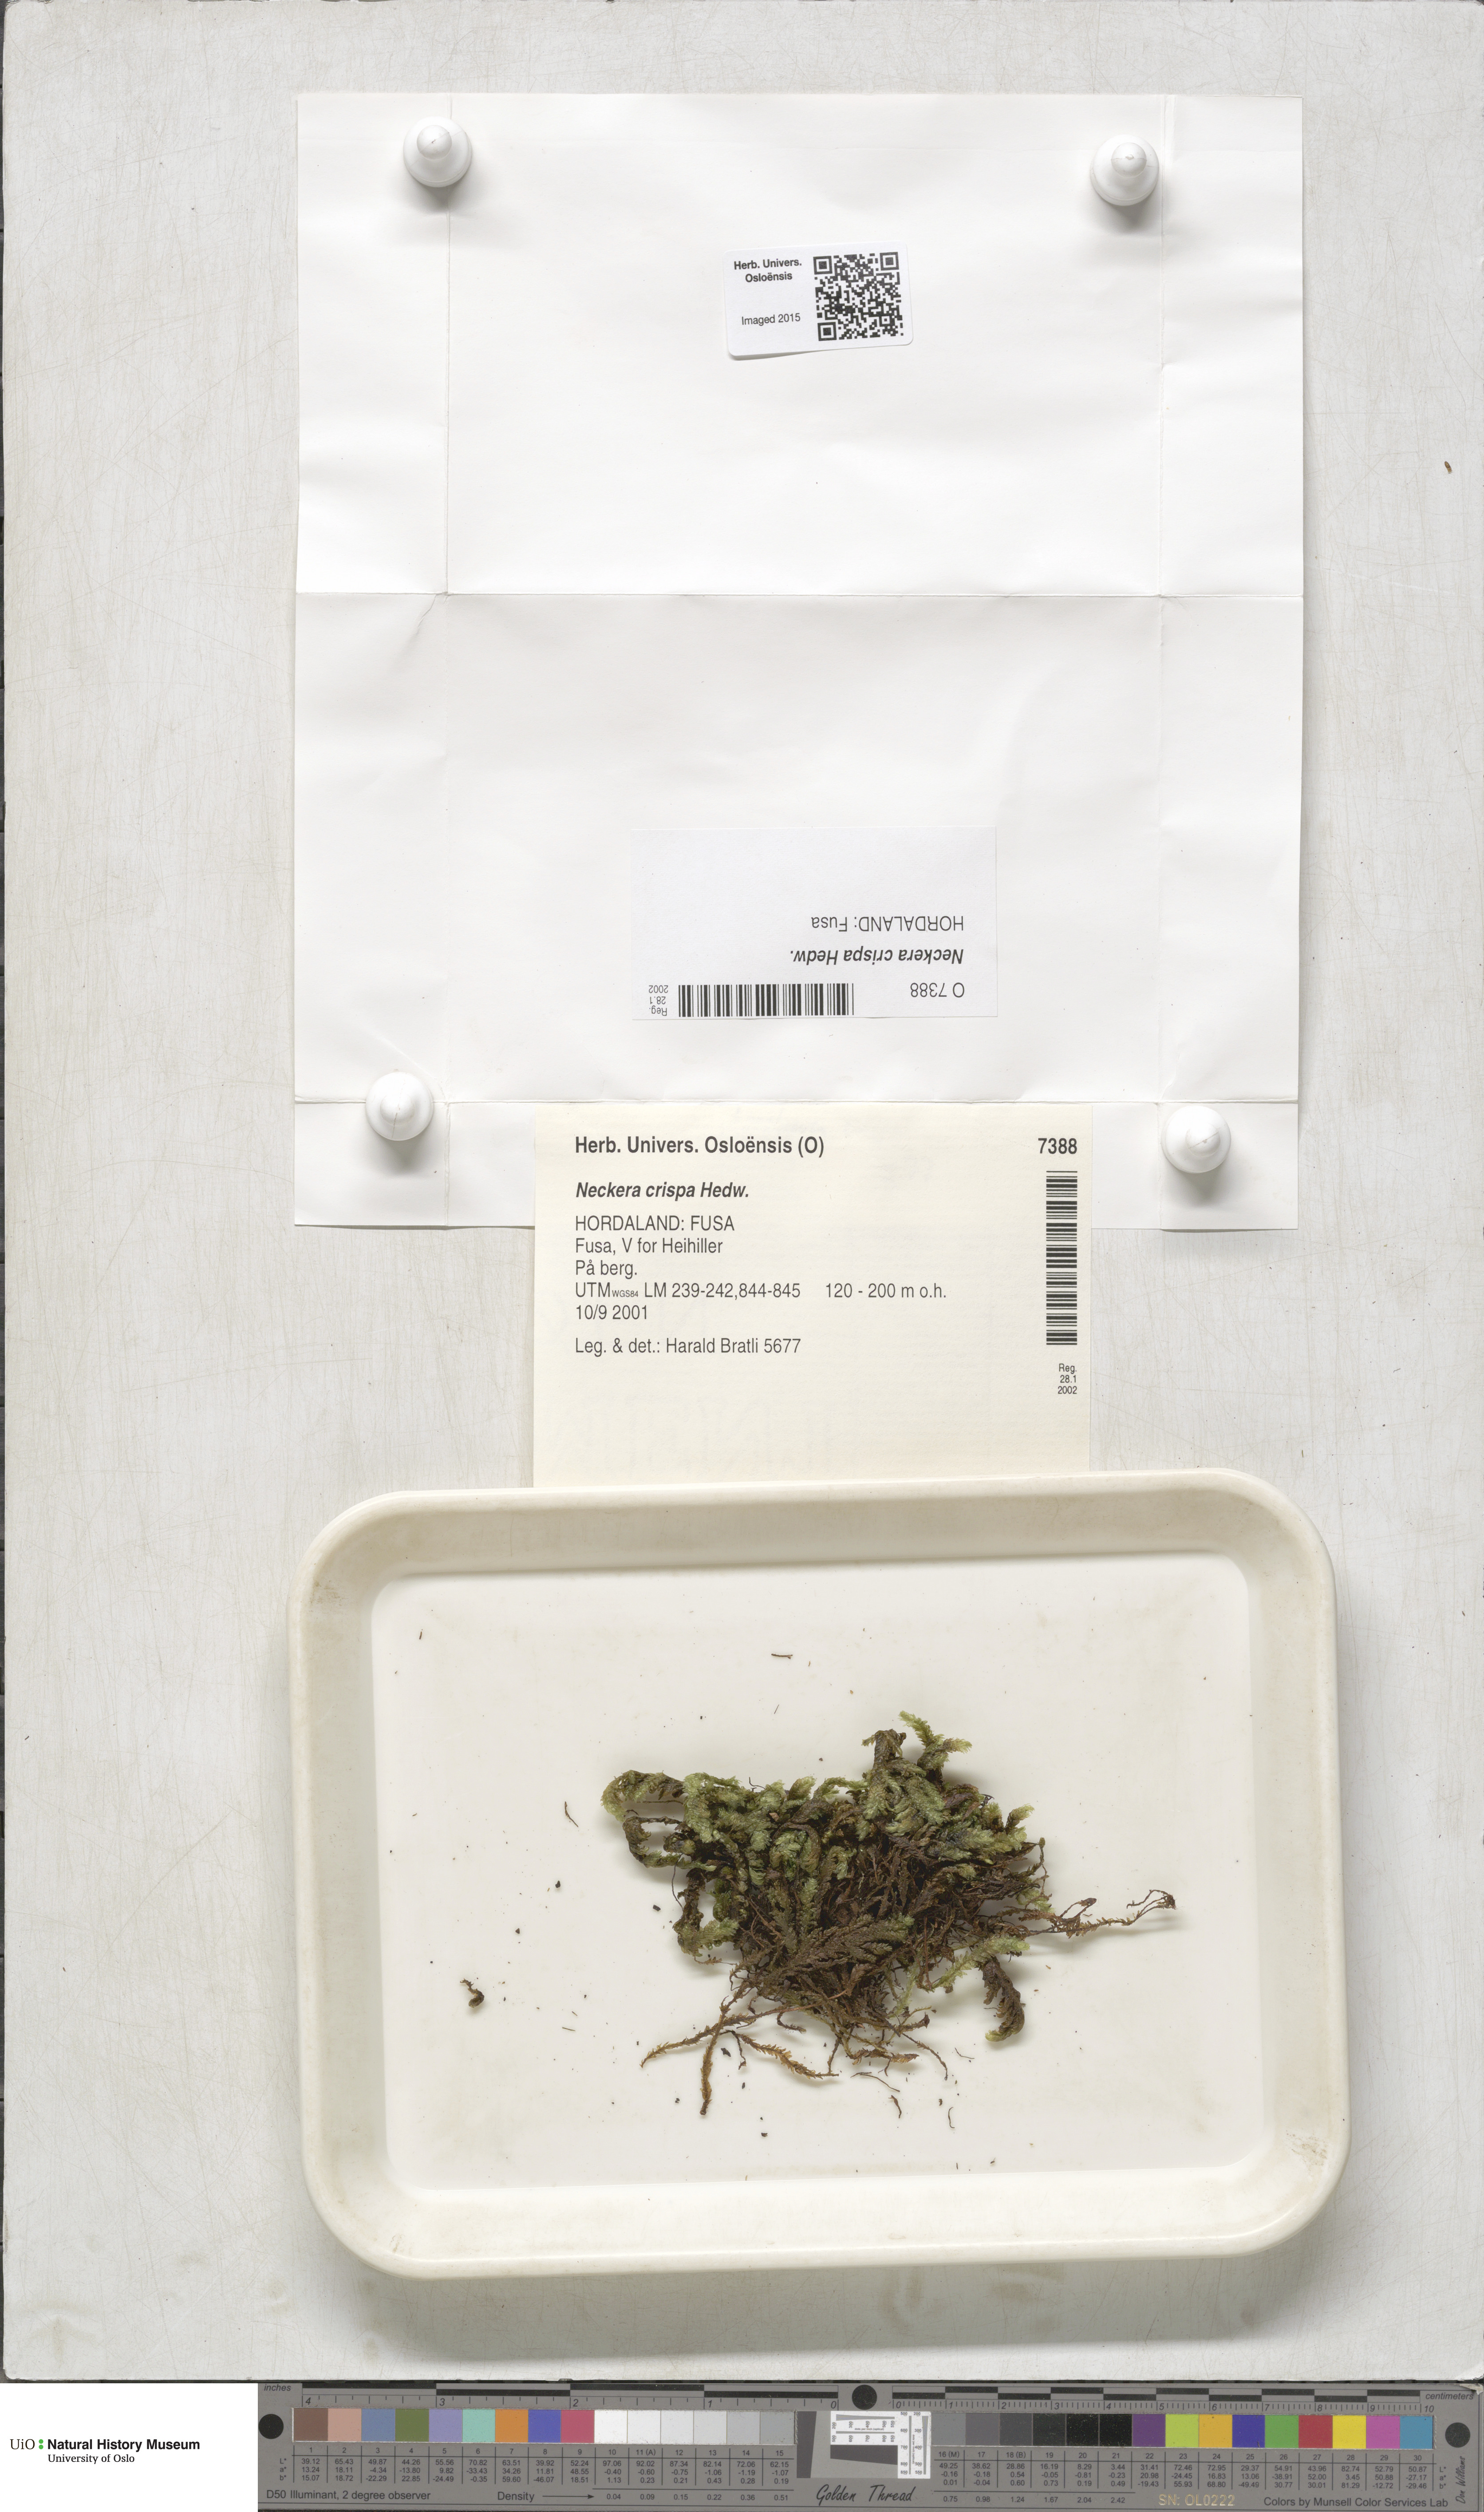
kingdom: Plantae
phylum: Bryophyta
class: Bryopsida
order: Hypnales
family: Neckeraceae
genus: Exsertotheca
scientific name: Exsertotheca crispa
